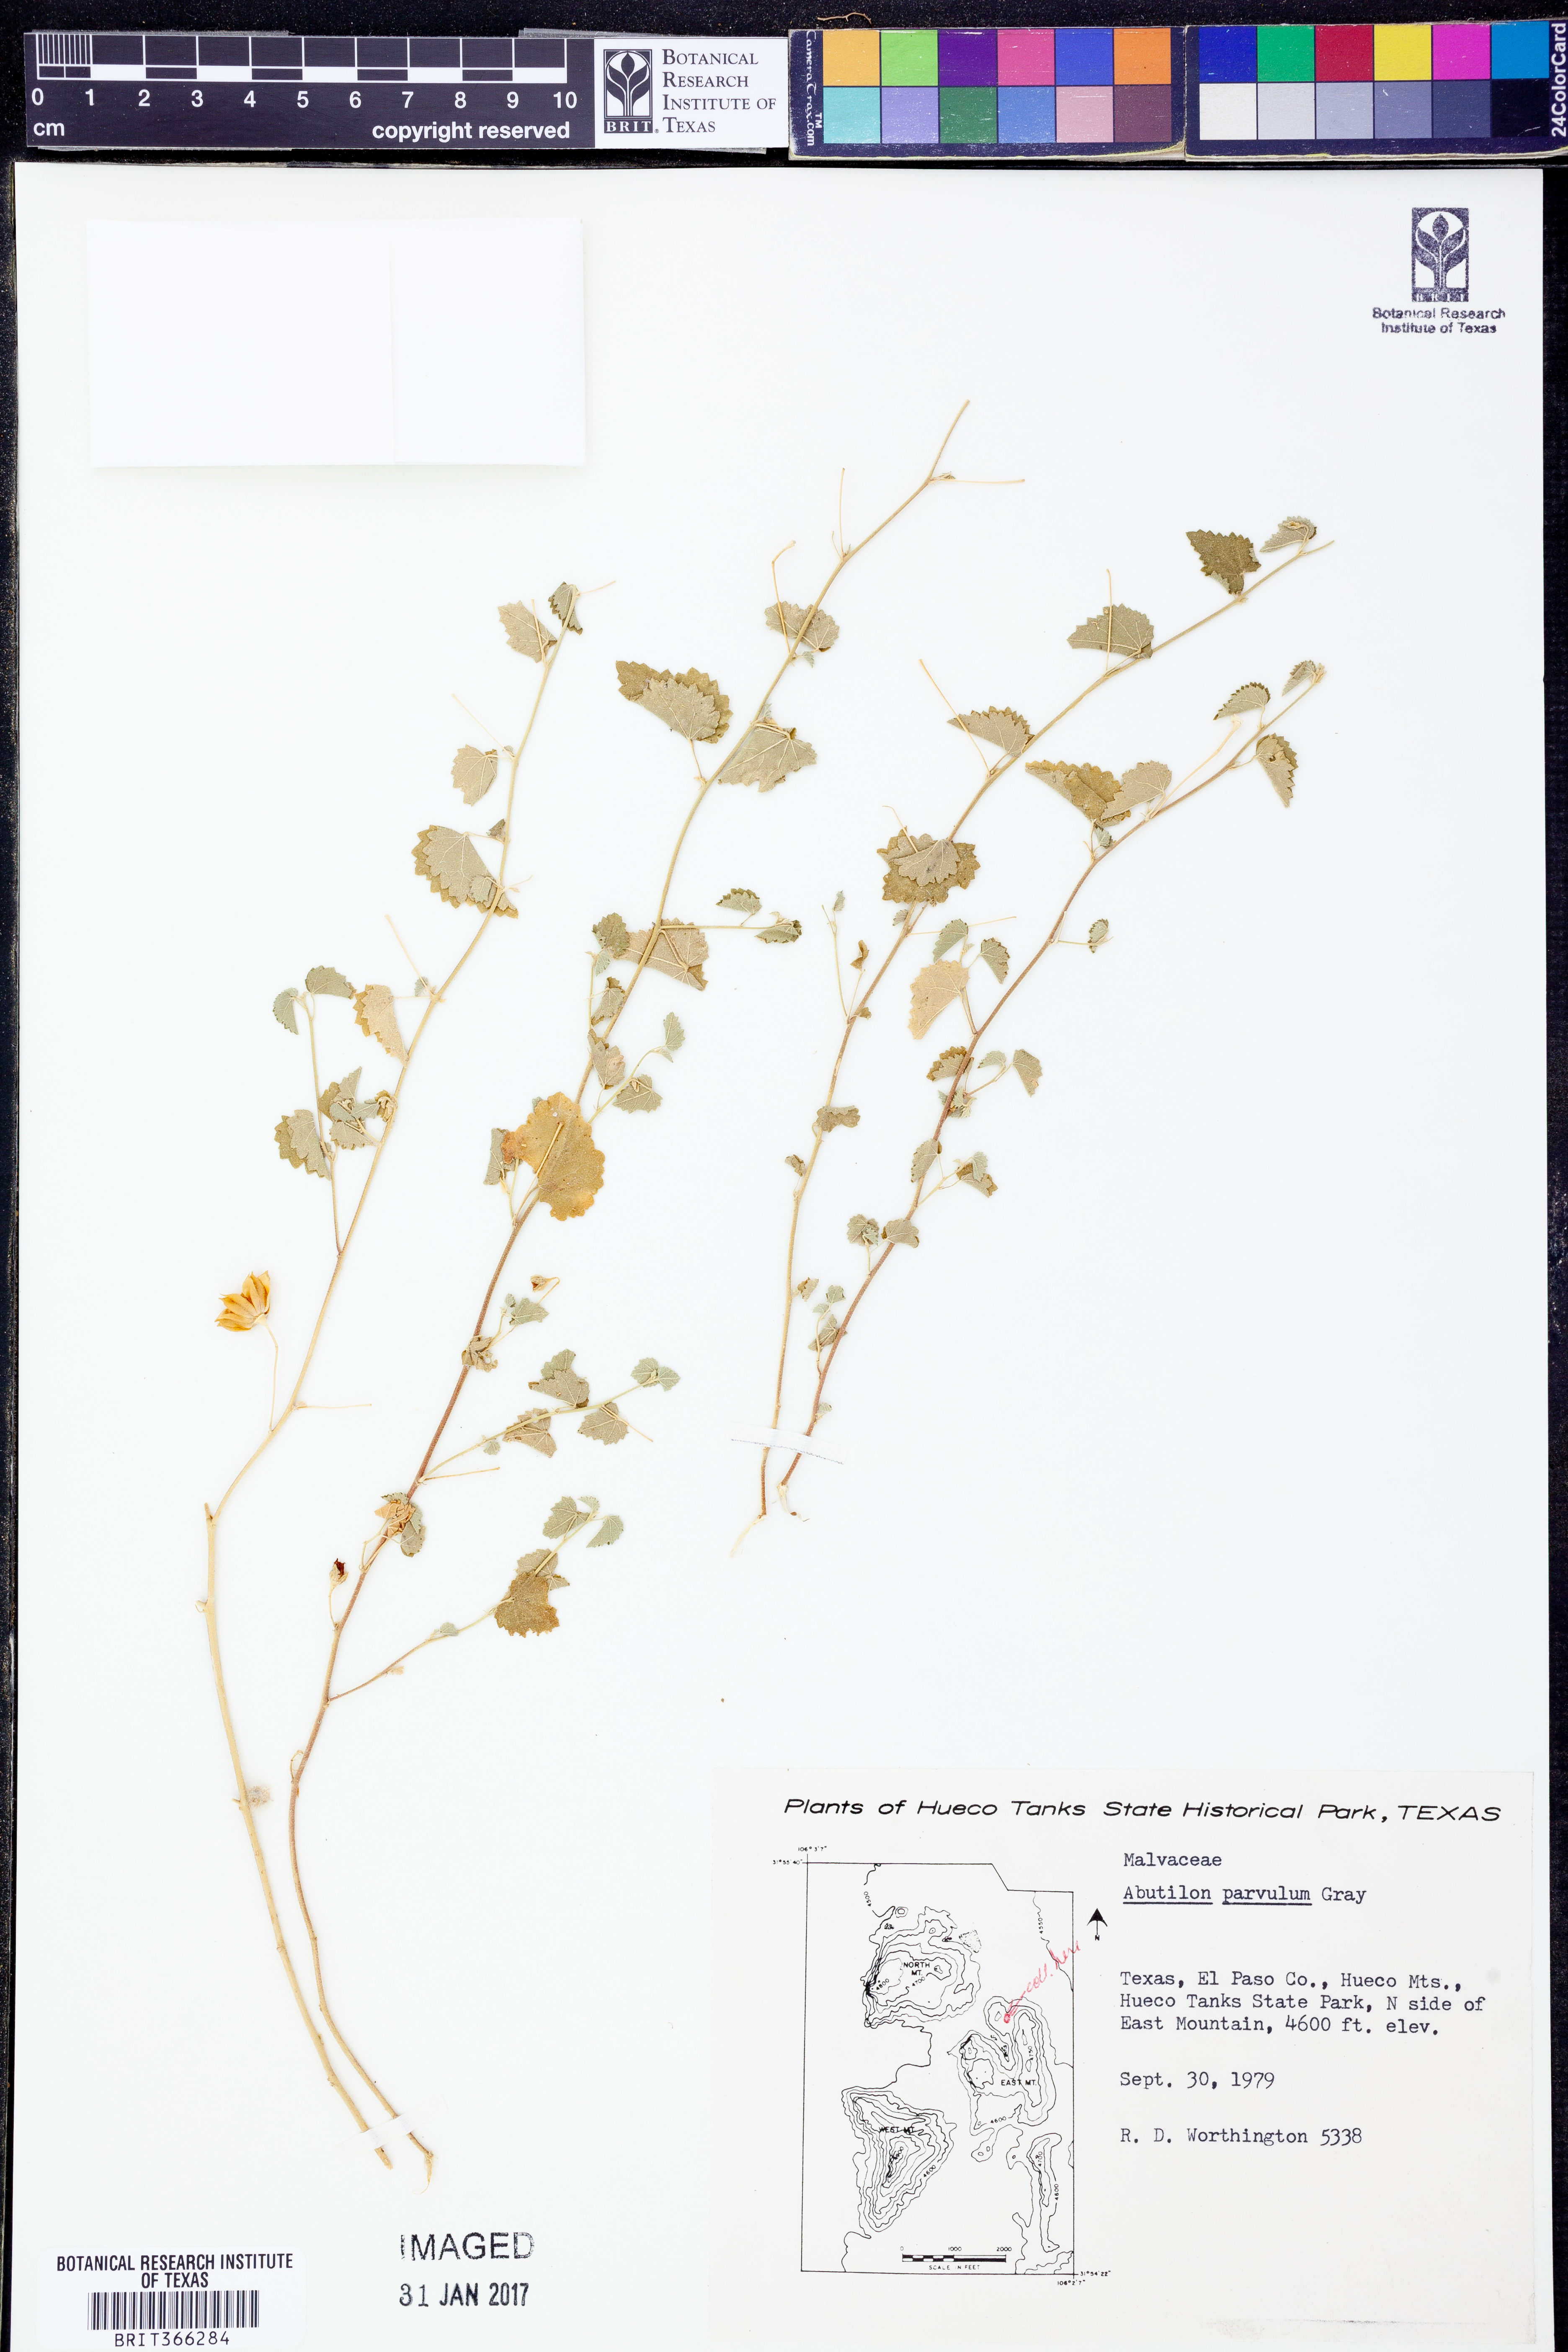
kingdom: Plantae
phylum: Tracheophyta
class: Magnoliopsida
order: Malvales
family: Malvaceae
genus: Abutilon
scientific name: Abutilon parvulum
